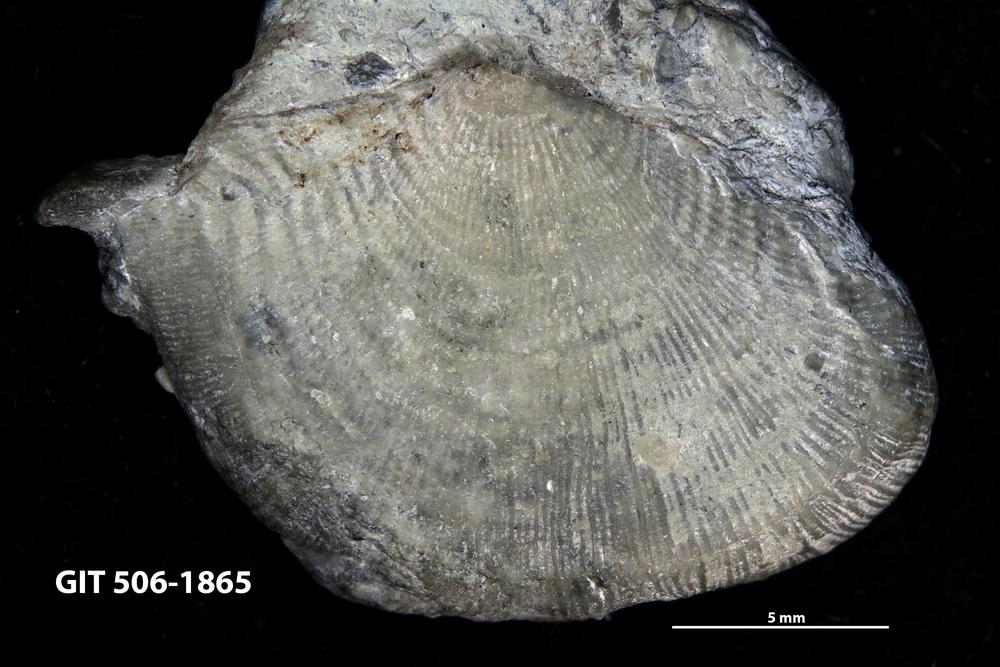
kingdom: Animalia
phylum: Brachiopoda
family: Strophomenidae
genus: Leptaena
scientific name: Leptaena purpurea
